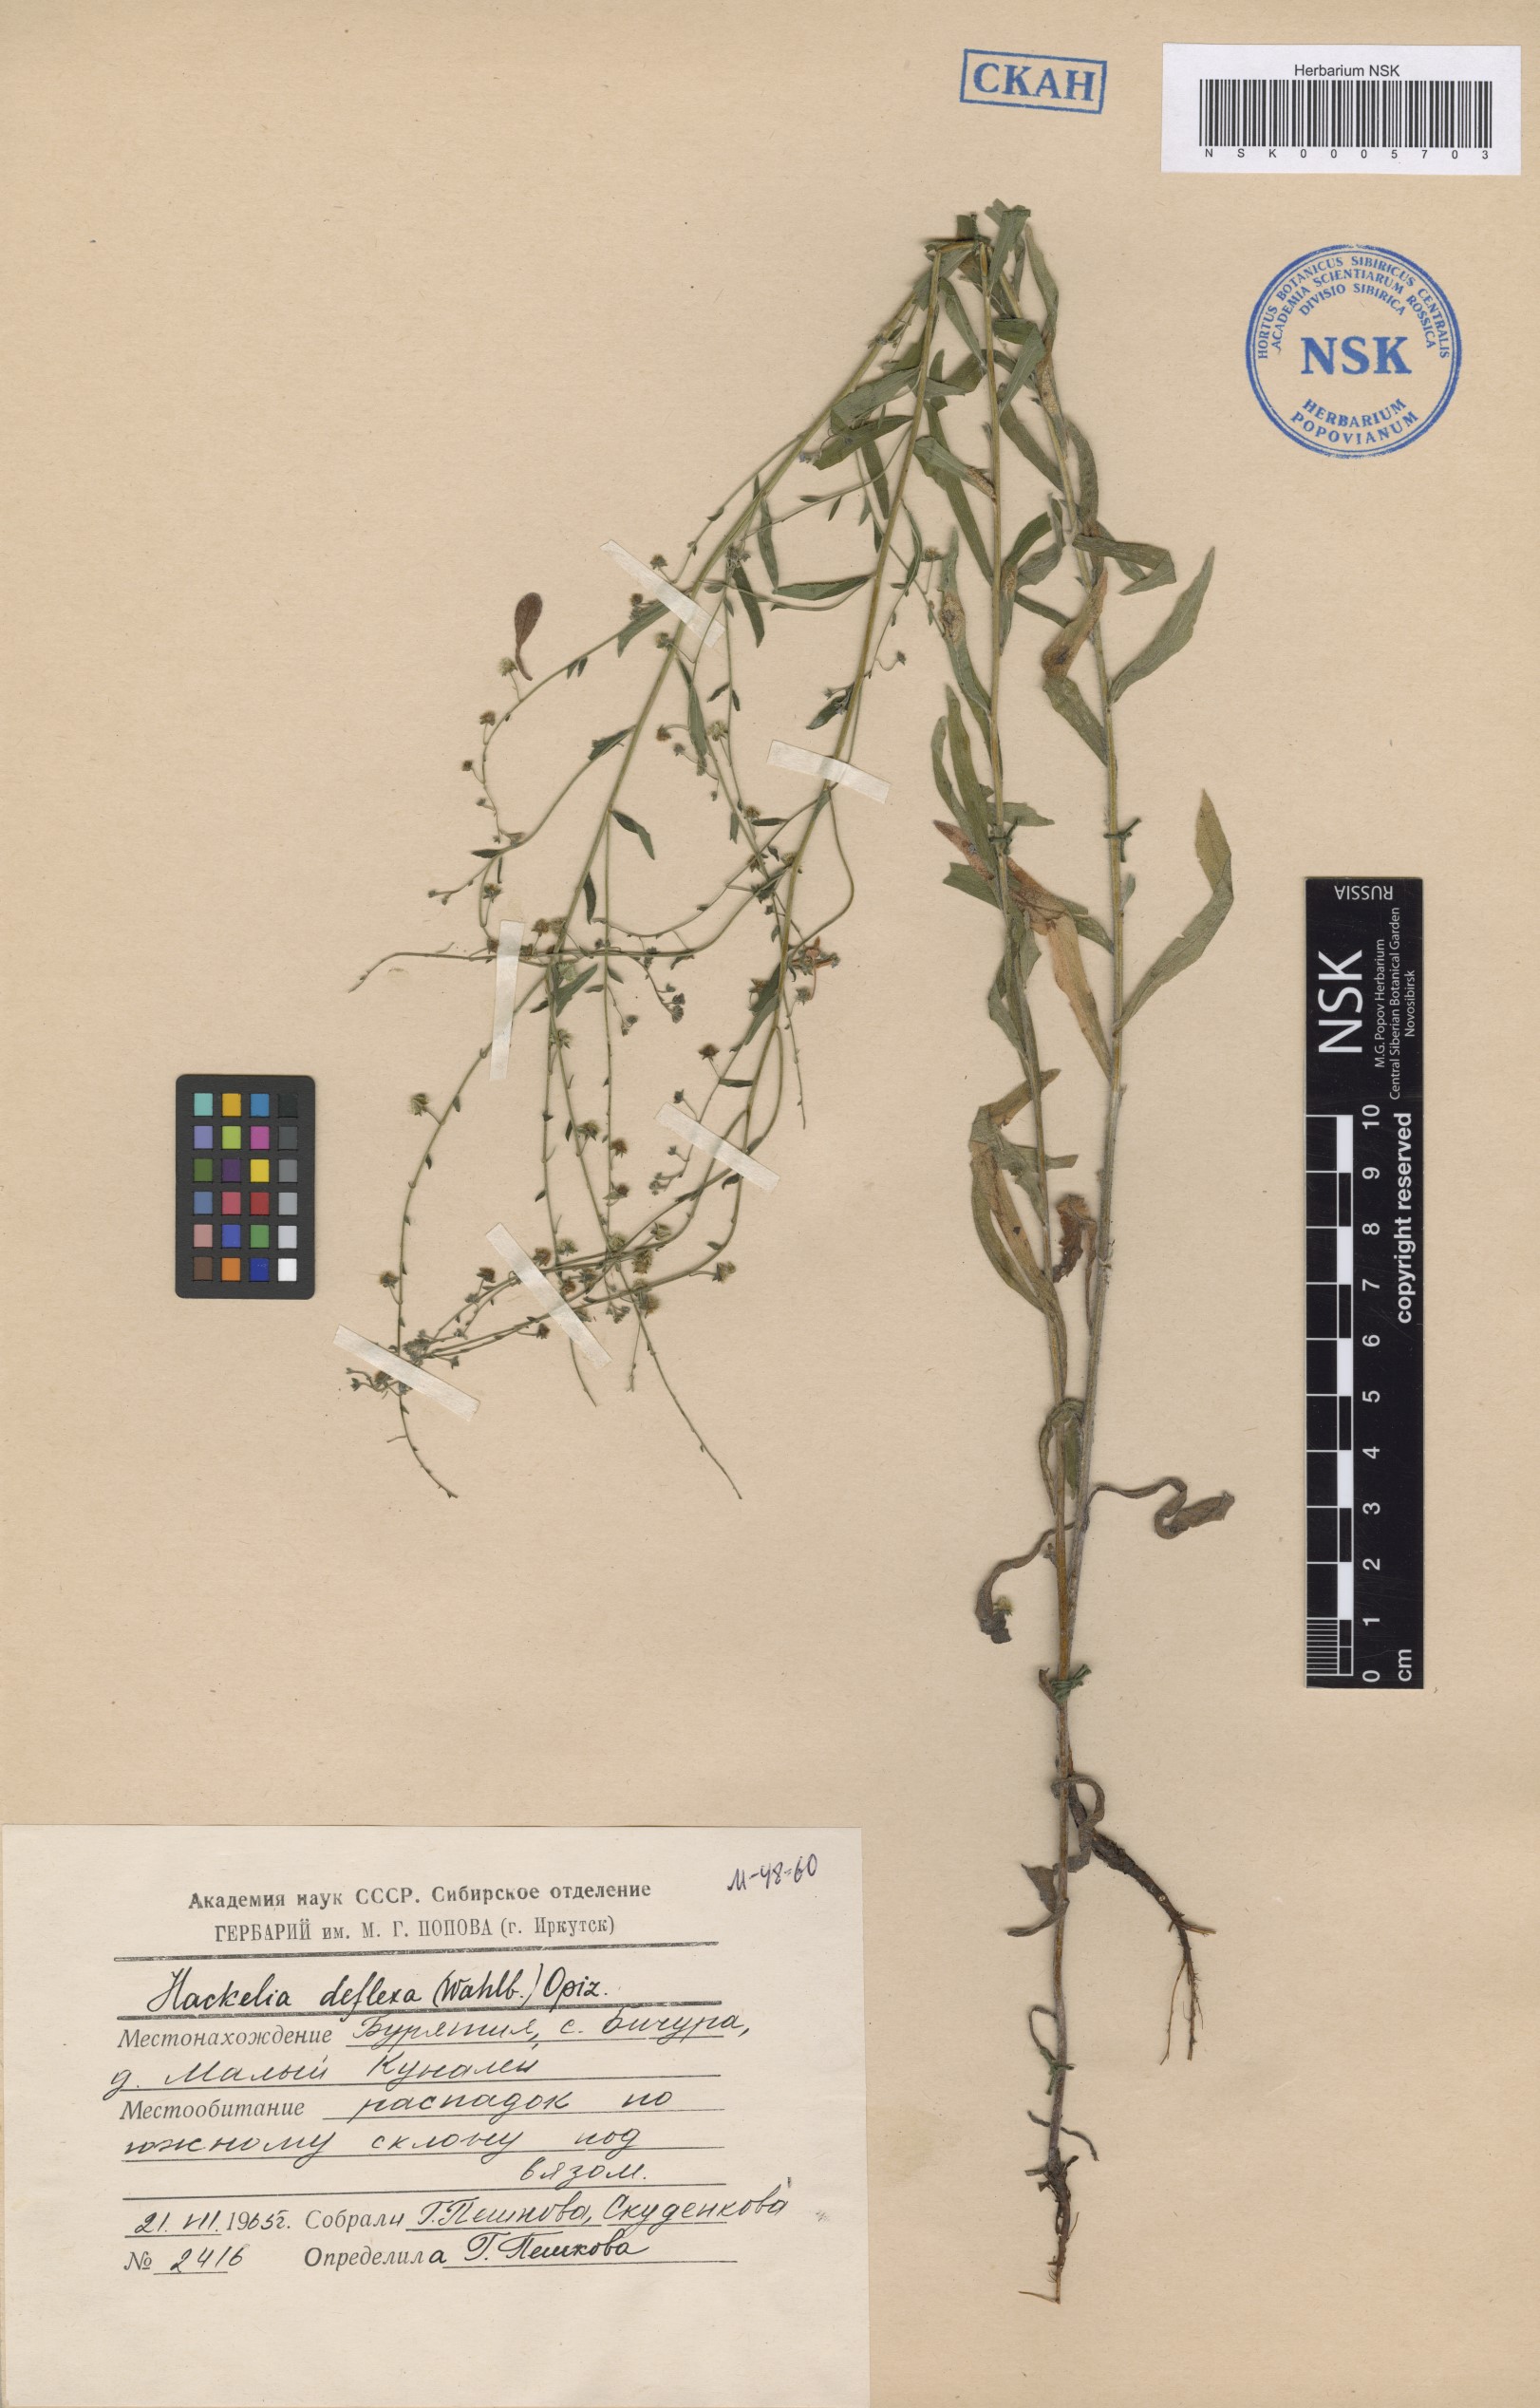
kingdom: Plantae
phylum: Tracheophyta
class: Magnoliopsida
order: Boraginales
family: Boraginaceae
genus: Hackelia
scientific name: Hackelia deflexa
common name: Nodding stickseed
